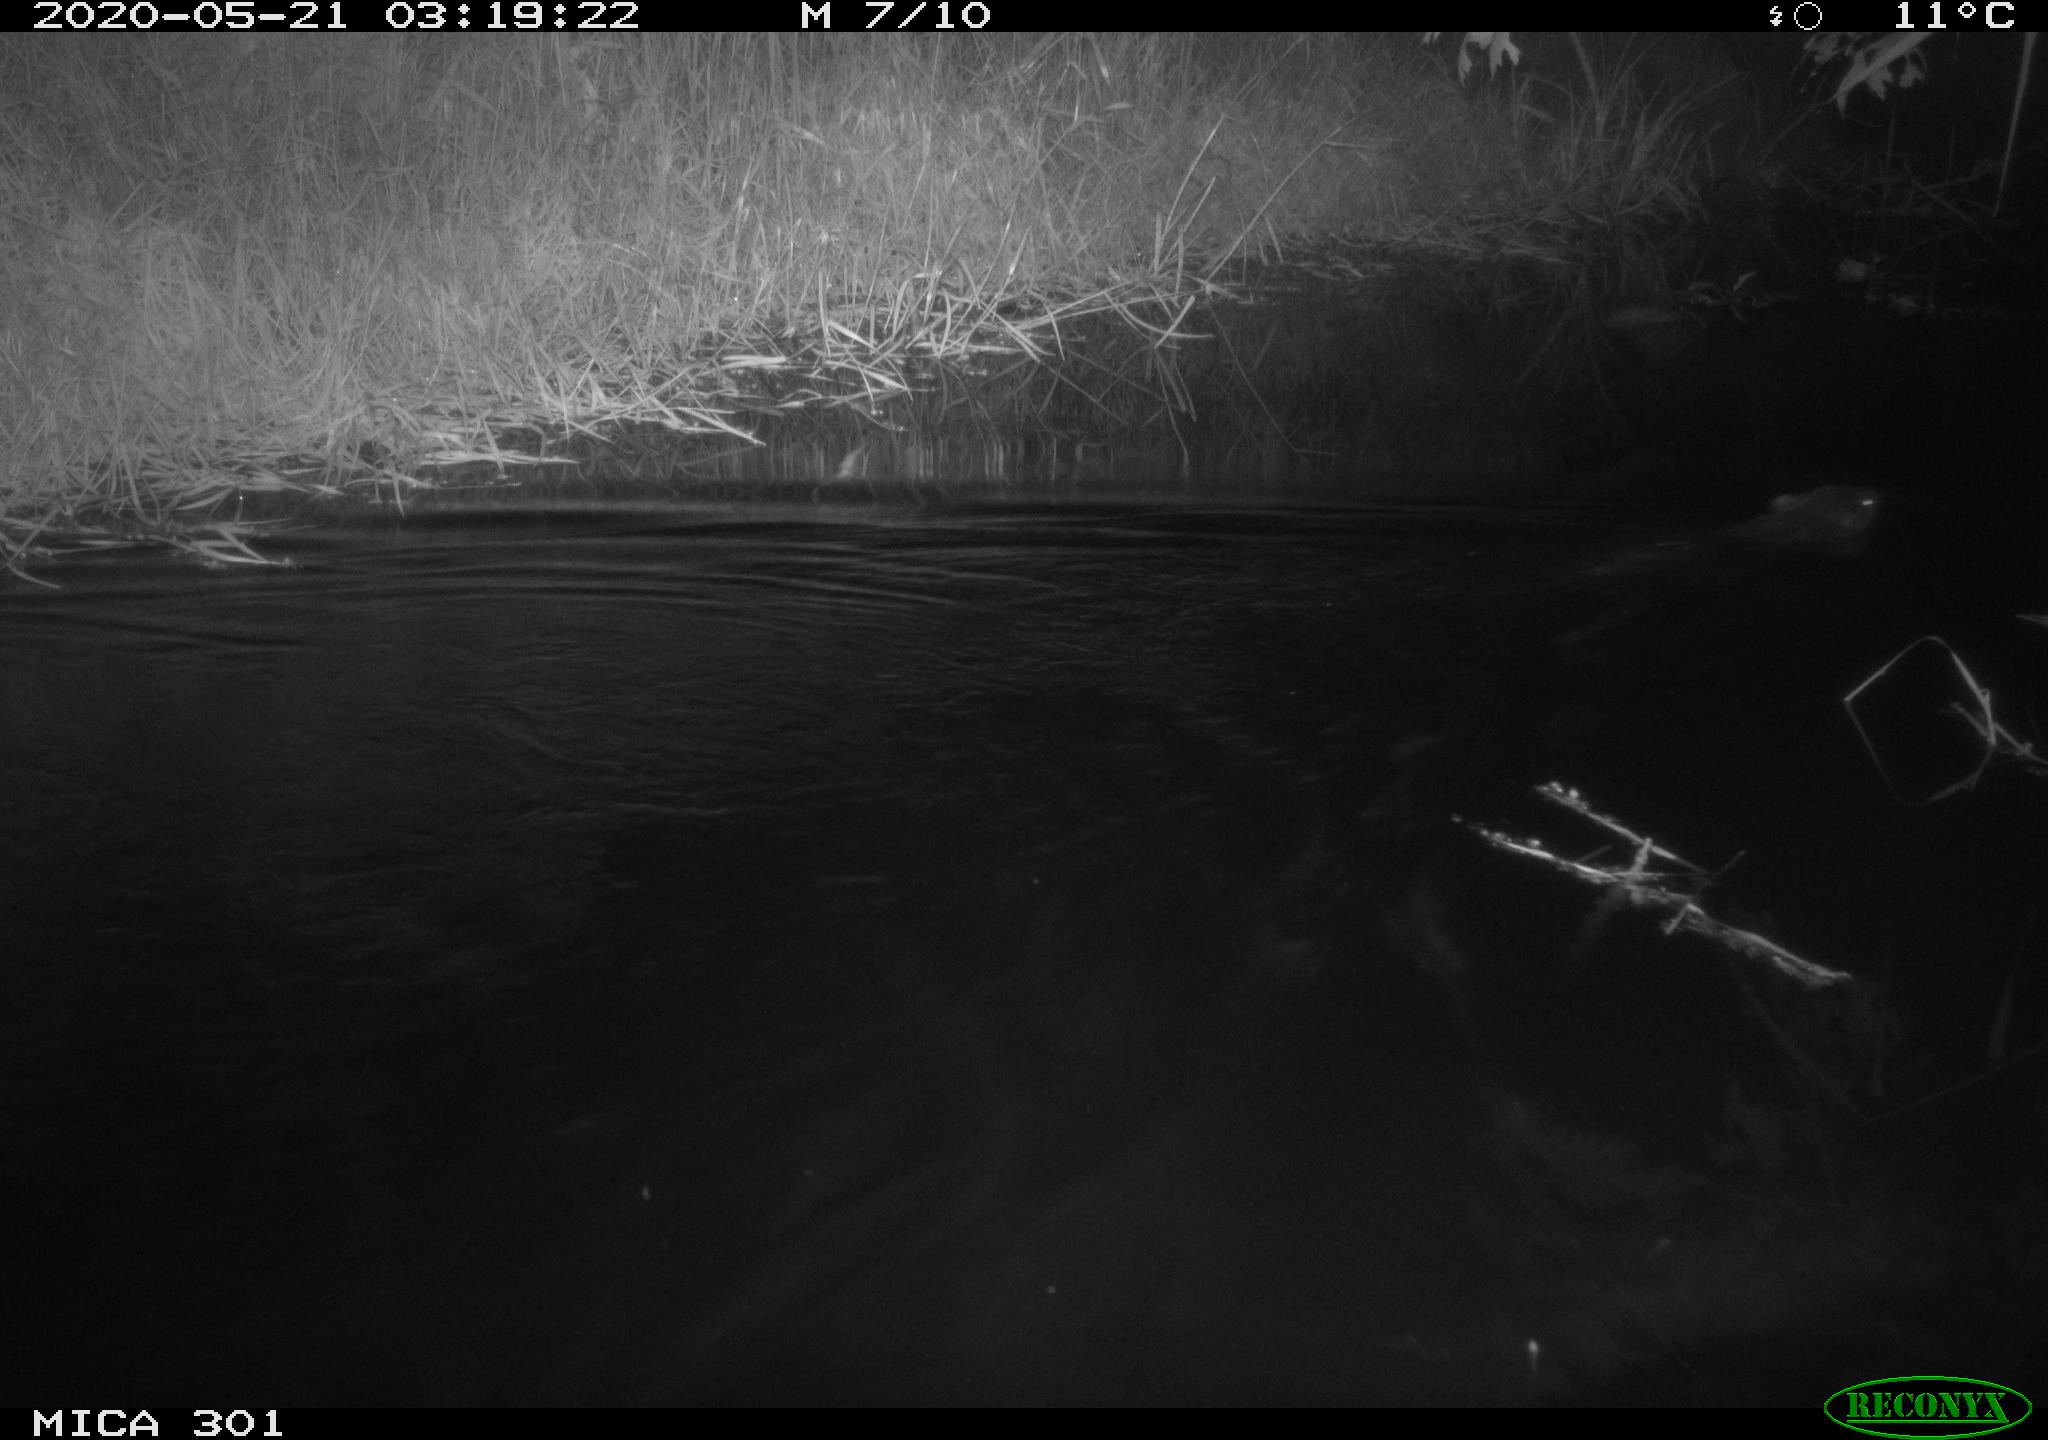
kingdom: Animalia
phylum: Chordata
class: Mammalia
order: Rodentia
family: Castoridae
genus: Castor
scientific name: Castor fiber
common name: Eurasian beaver
